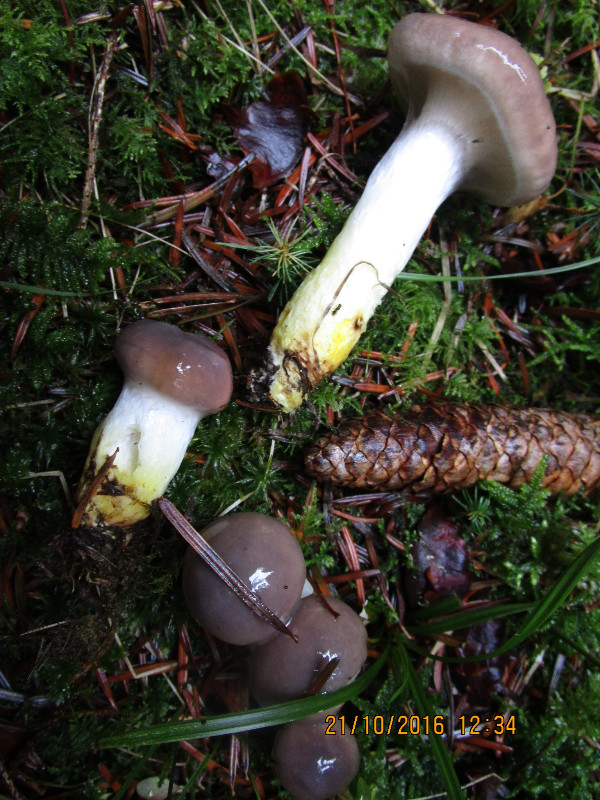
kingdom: Fungi
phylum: Basidiomycota
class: Agaricomycetes
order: Boletales
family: Gomphidiaceae
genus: Gomphidius
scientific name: Gomphidius glutinosus
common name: grå slimslør
